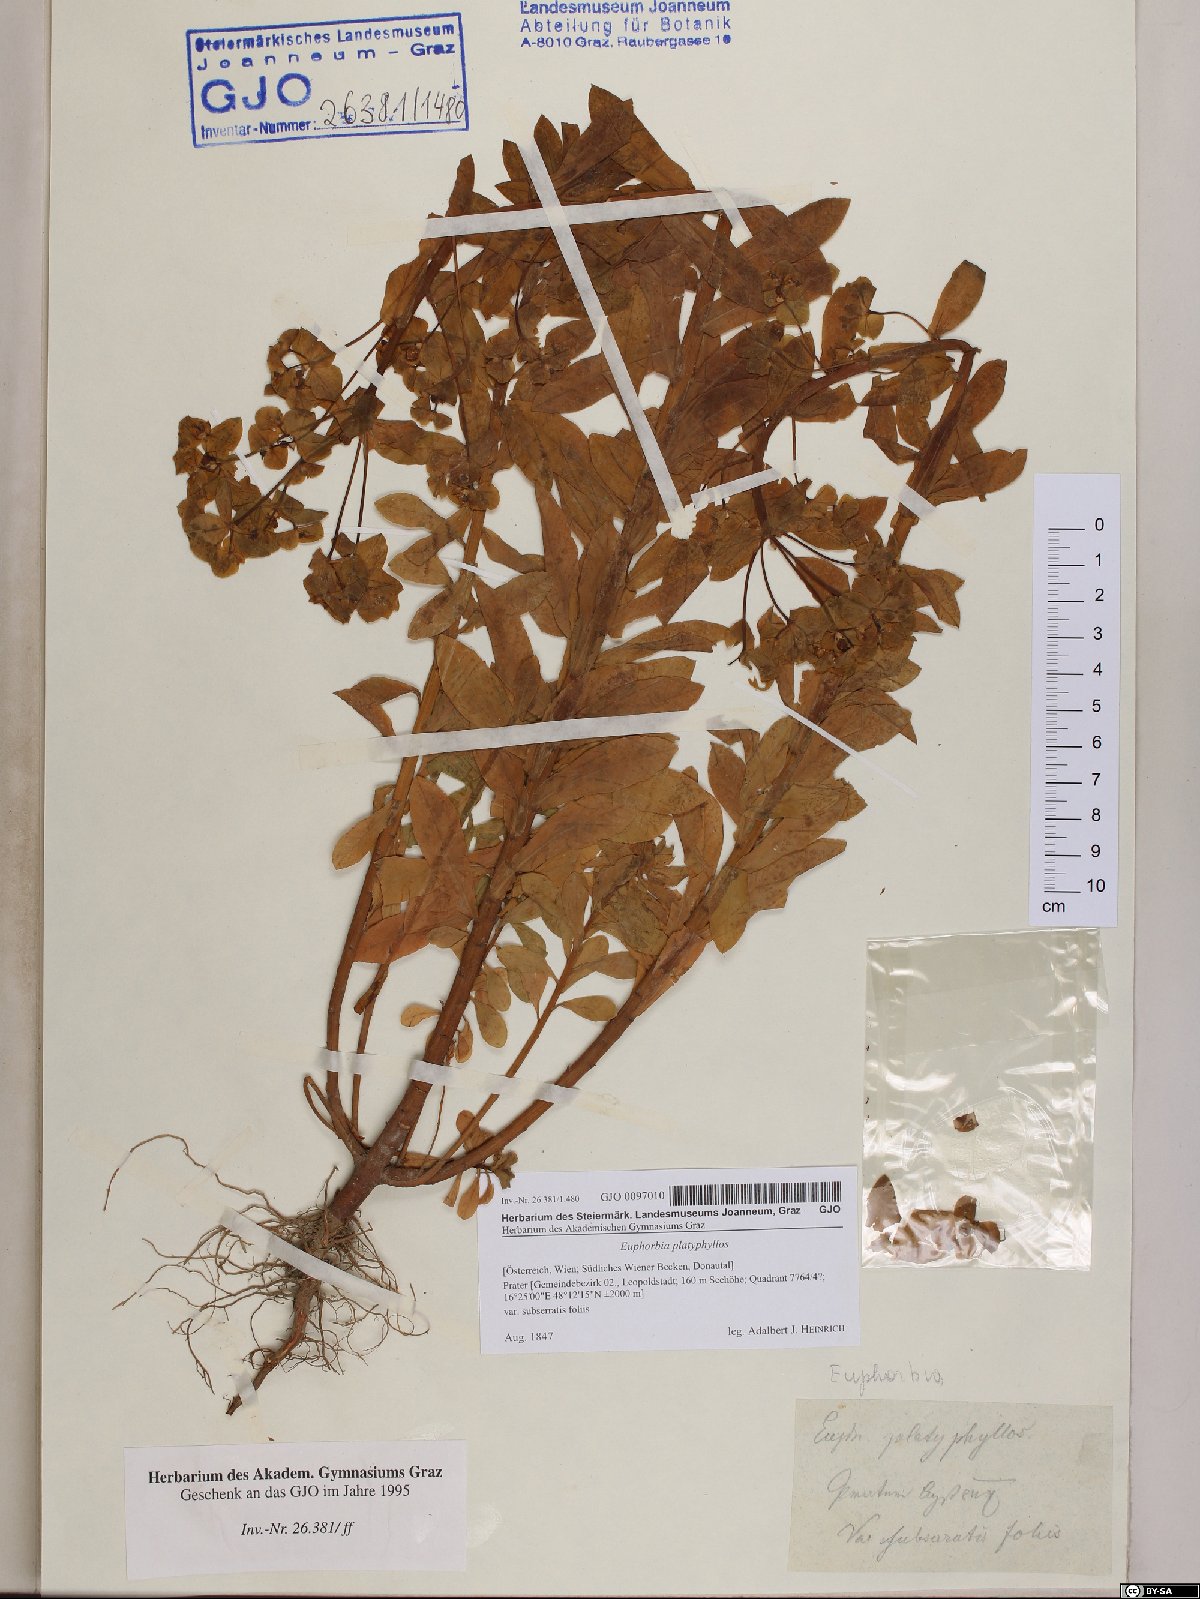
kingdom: Plantae
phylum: Tracheophyta
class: Magnoliopsida
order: Malpighiales
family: Euphorbiaceae
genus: Euphorbia
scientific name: Euphorbia platyphyllos
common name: Broad-leaved spurge
